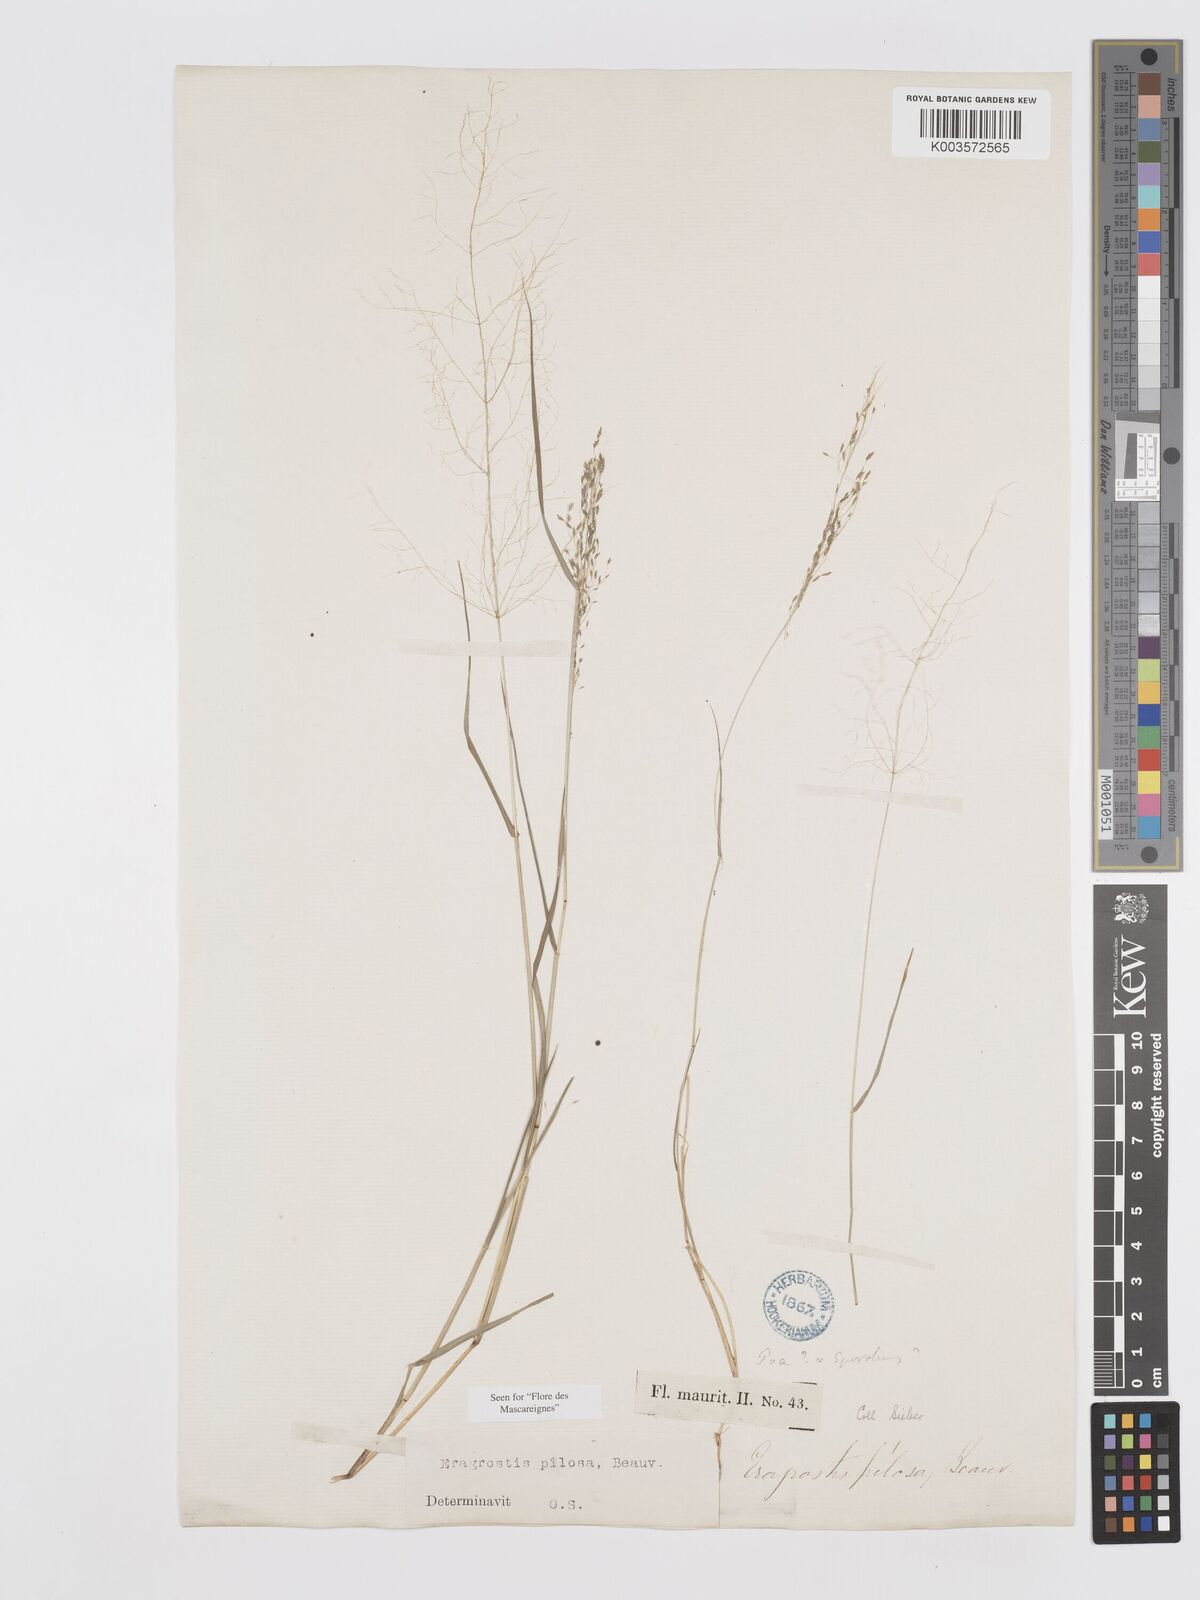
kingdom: Plantae
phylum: Tracheophyta
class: Liliopsida
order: Poales
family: Poaceae
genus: Eragrostis
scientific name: Eragrostis pilosa
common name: Indian lovegrass
